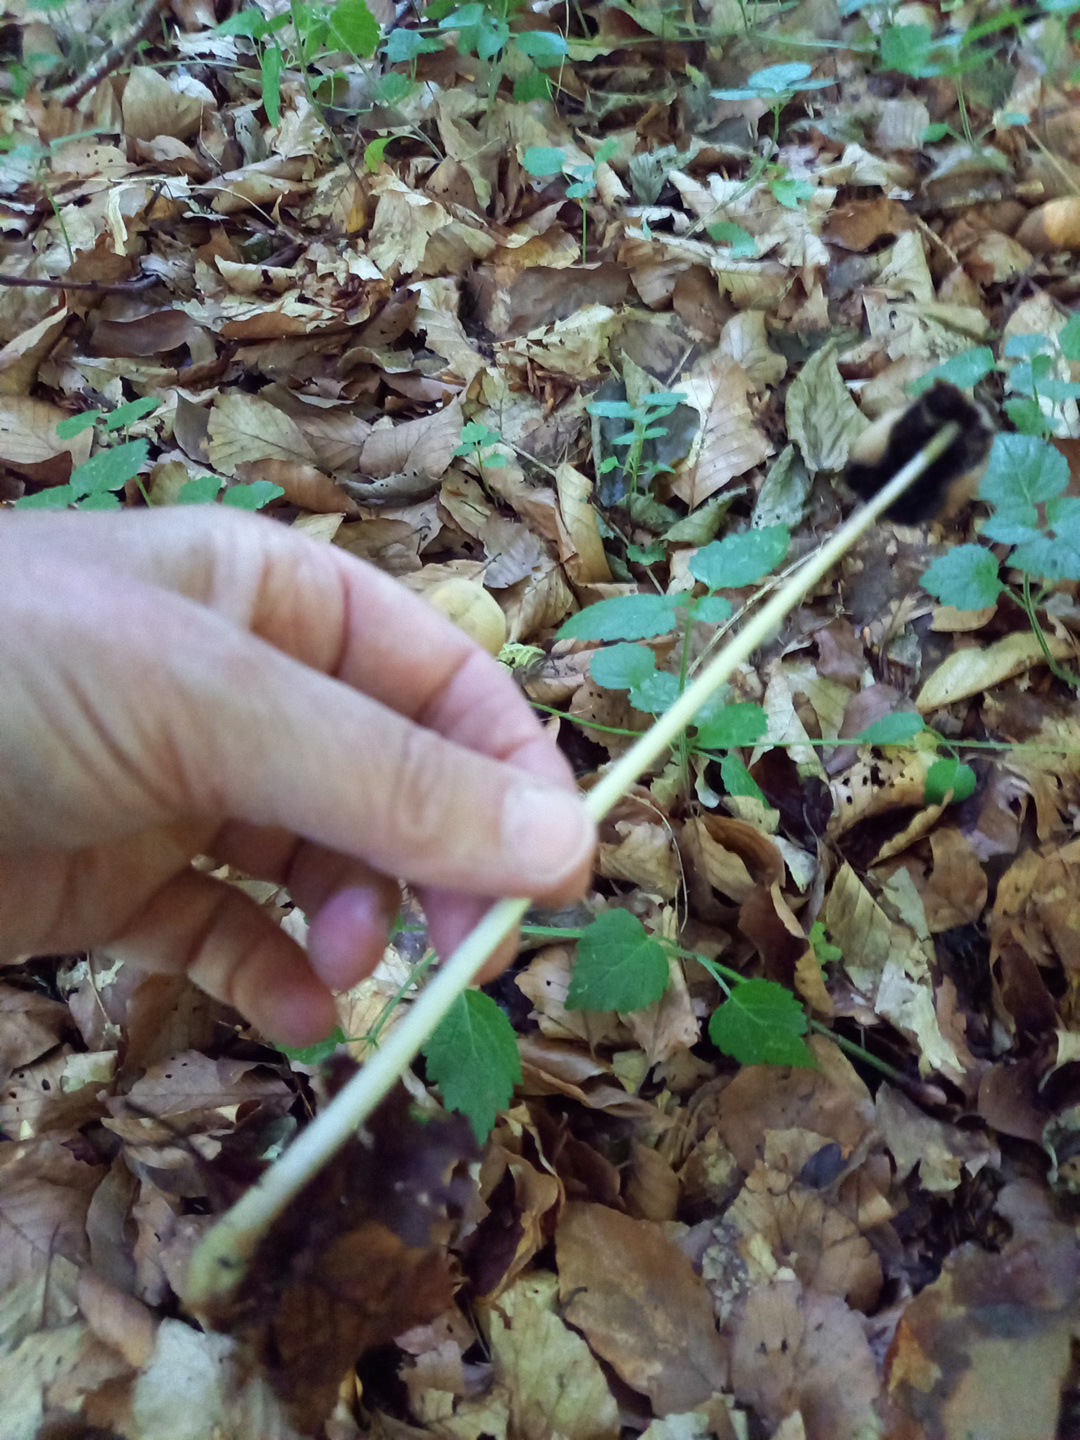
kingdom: Fungi
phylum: Basidiomycota
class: Agaricomycetes
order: Agaricales
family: Psathyrellaceae
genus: Parasola
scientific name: Parasola conopilea
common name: kegle-hjulhat
